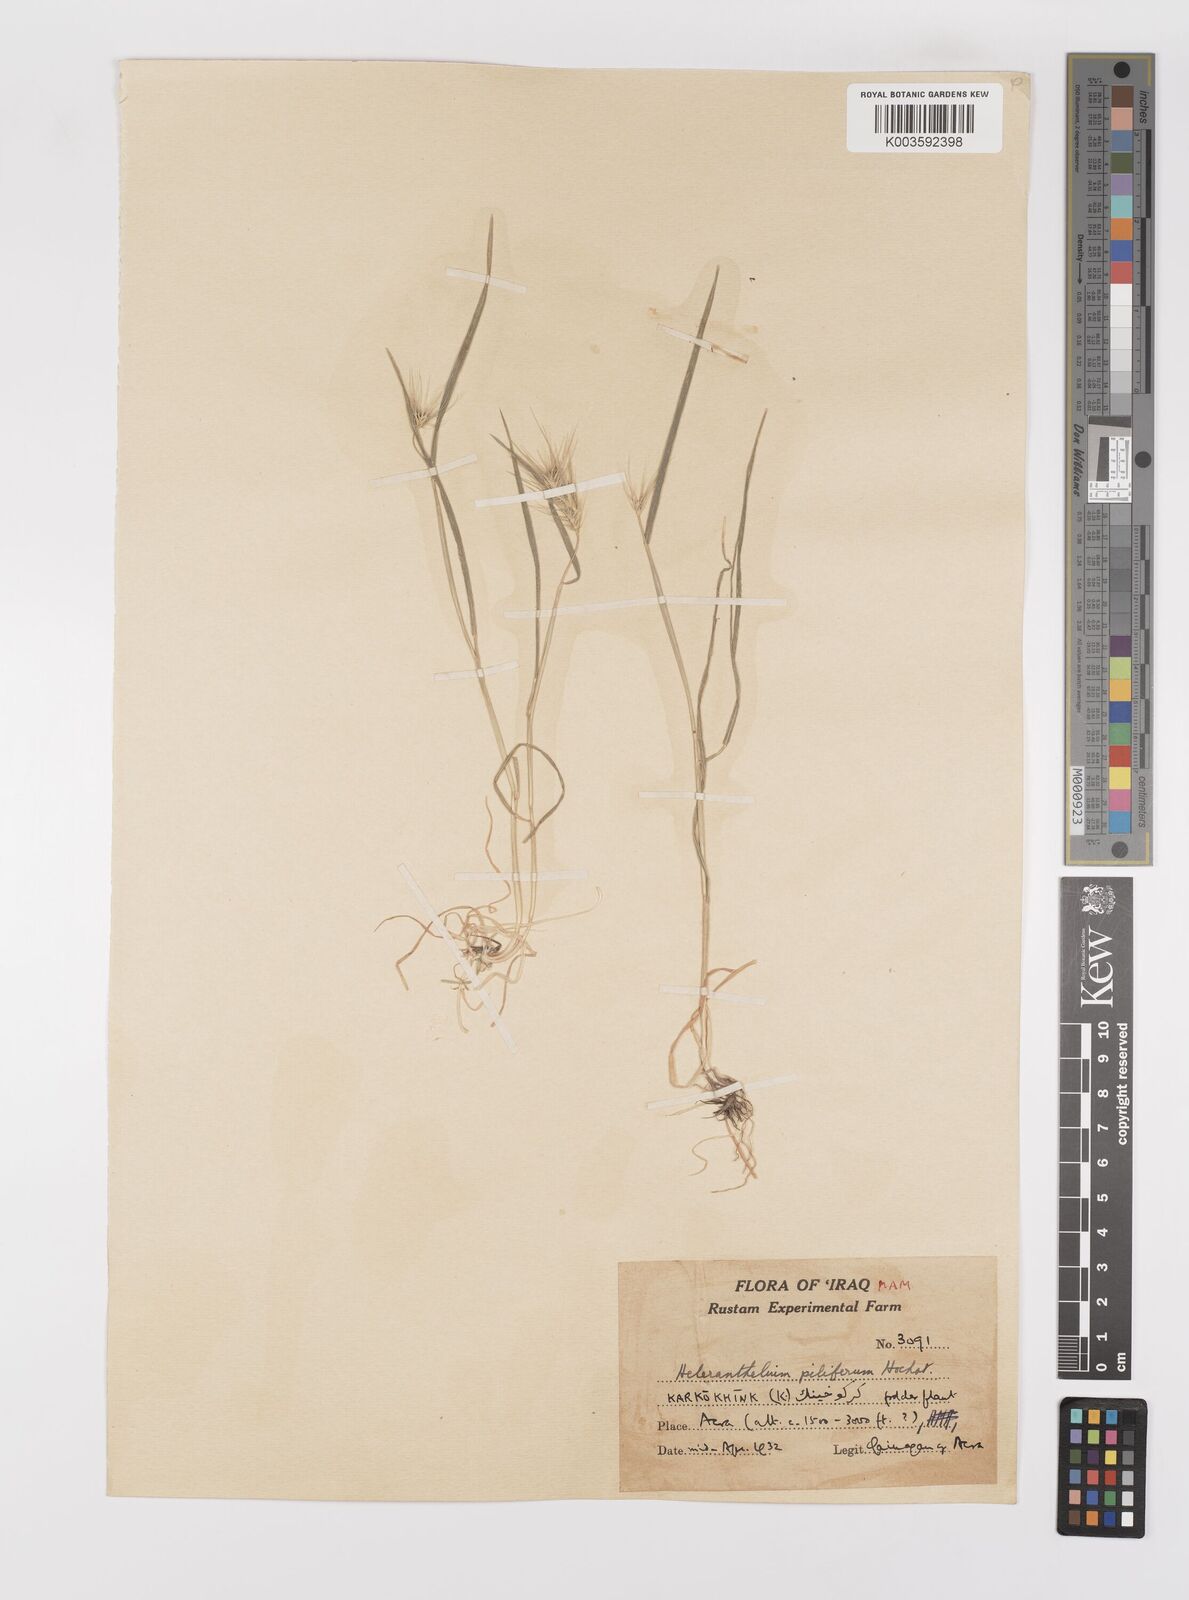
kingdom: Plantae
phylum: Tracheophyta
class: Liliopsida
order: Poales
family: Poaceae
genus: Heteranthelium
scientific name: Heteranthelium piliferum
